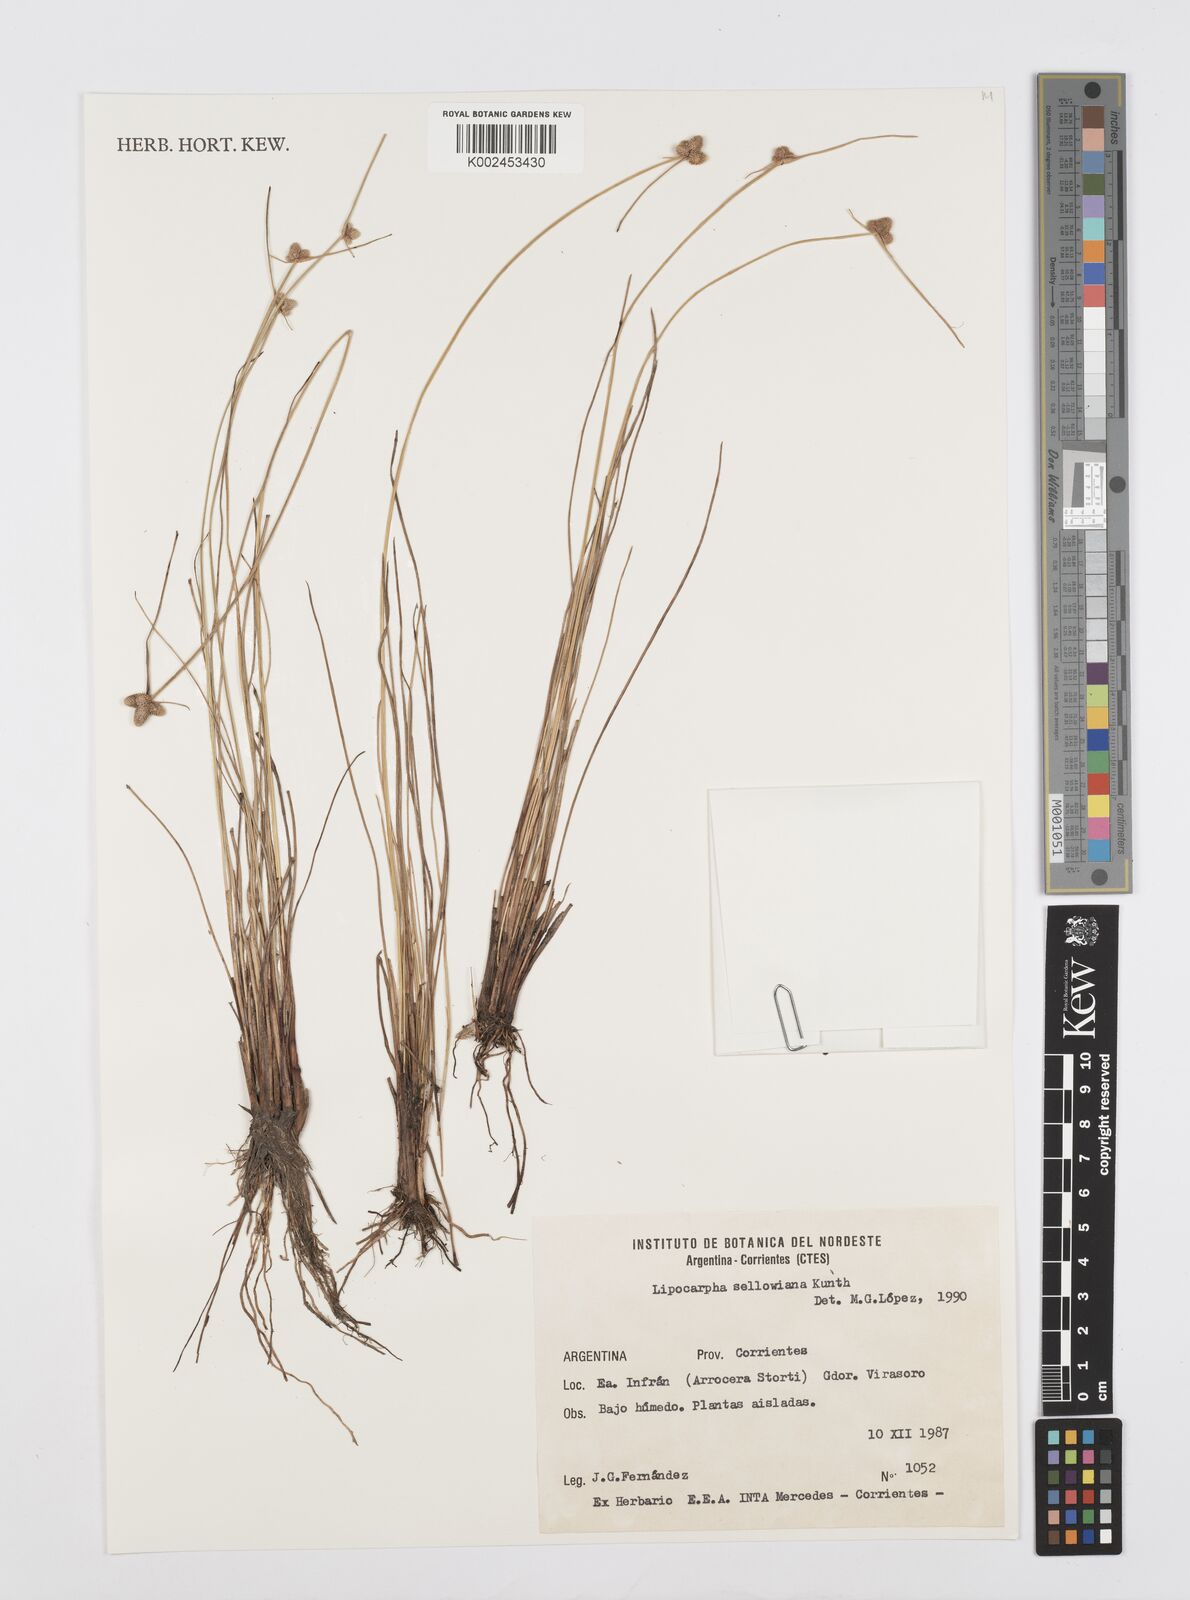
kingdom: Plantae
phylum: Tracheophyta
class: Liliopsida
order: Poales
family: Cyperaceae
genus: Cyperus
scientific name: Cyperus lanceolatus
